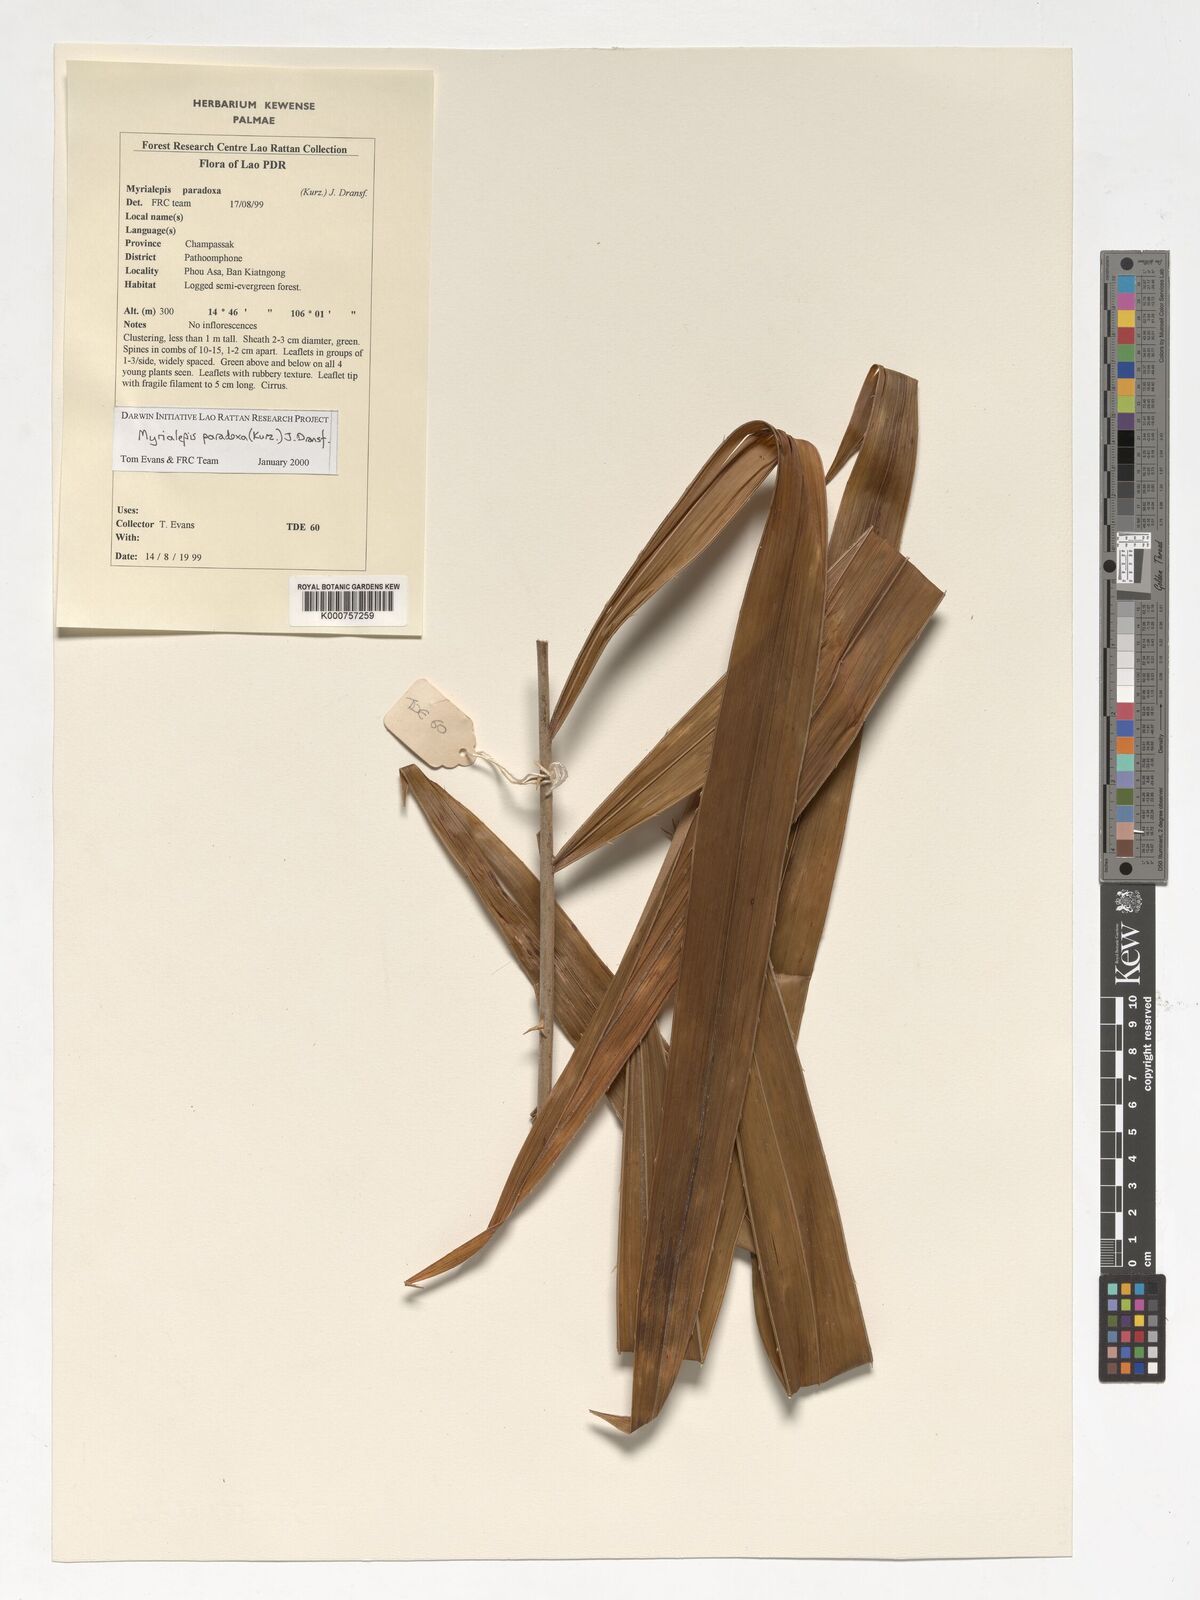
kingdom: Plantae
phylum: Tracheophyta
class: Liliopsida
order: Arecales
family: Arecaceae
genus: Myrialepis
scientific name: Myrialepis paradoxa
